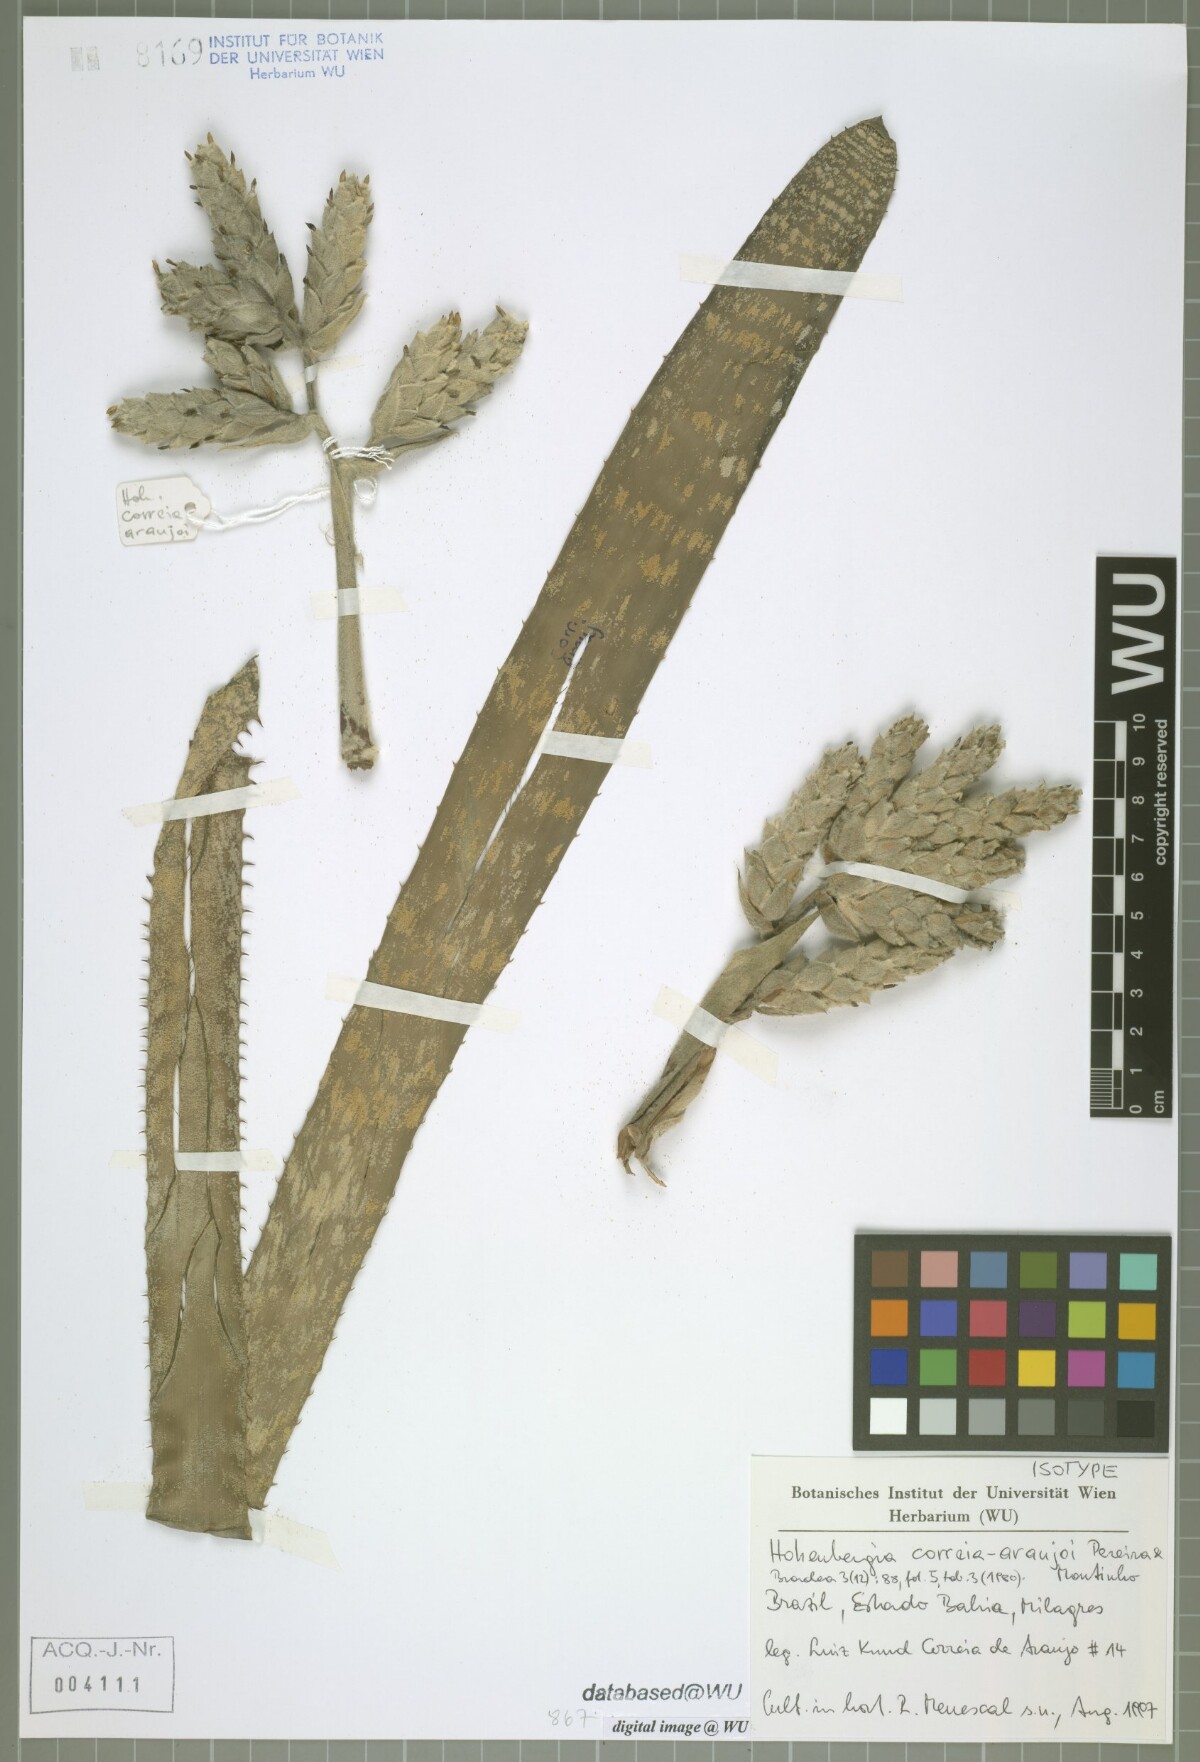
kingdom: Plantae
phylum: Tracheophyta
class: Liliopsida
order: Poales
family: Bromeliaceae
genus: Hohenbergia
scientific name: Hohenbergia correia-araujoi
